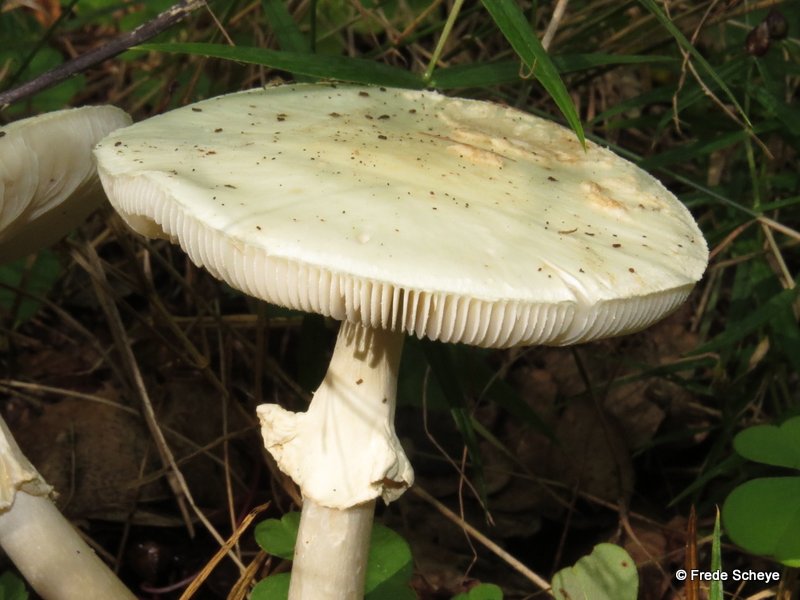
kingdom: Fungi
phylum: Basidiomycota
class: Agaricomycetes
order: Agaricales
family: Amanitaceae
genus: Amanita
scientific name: Amanita citrina
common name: False death-cap
